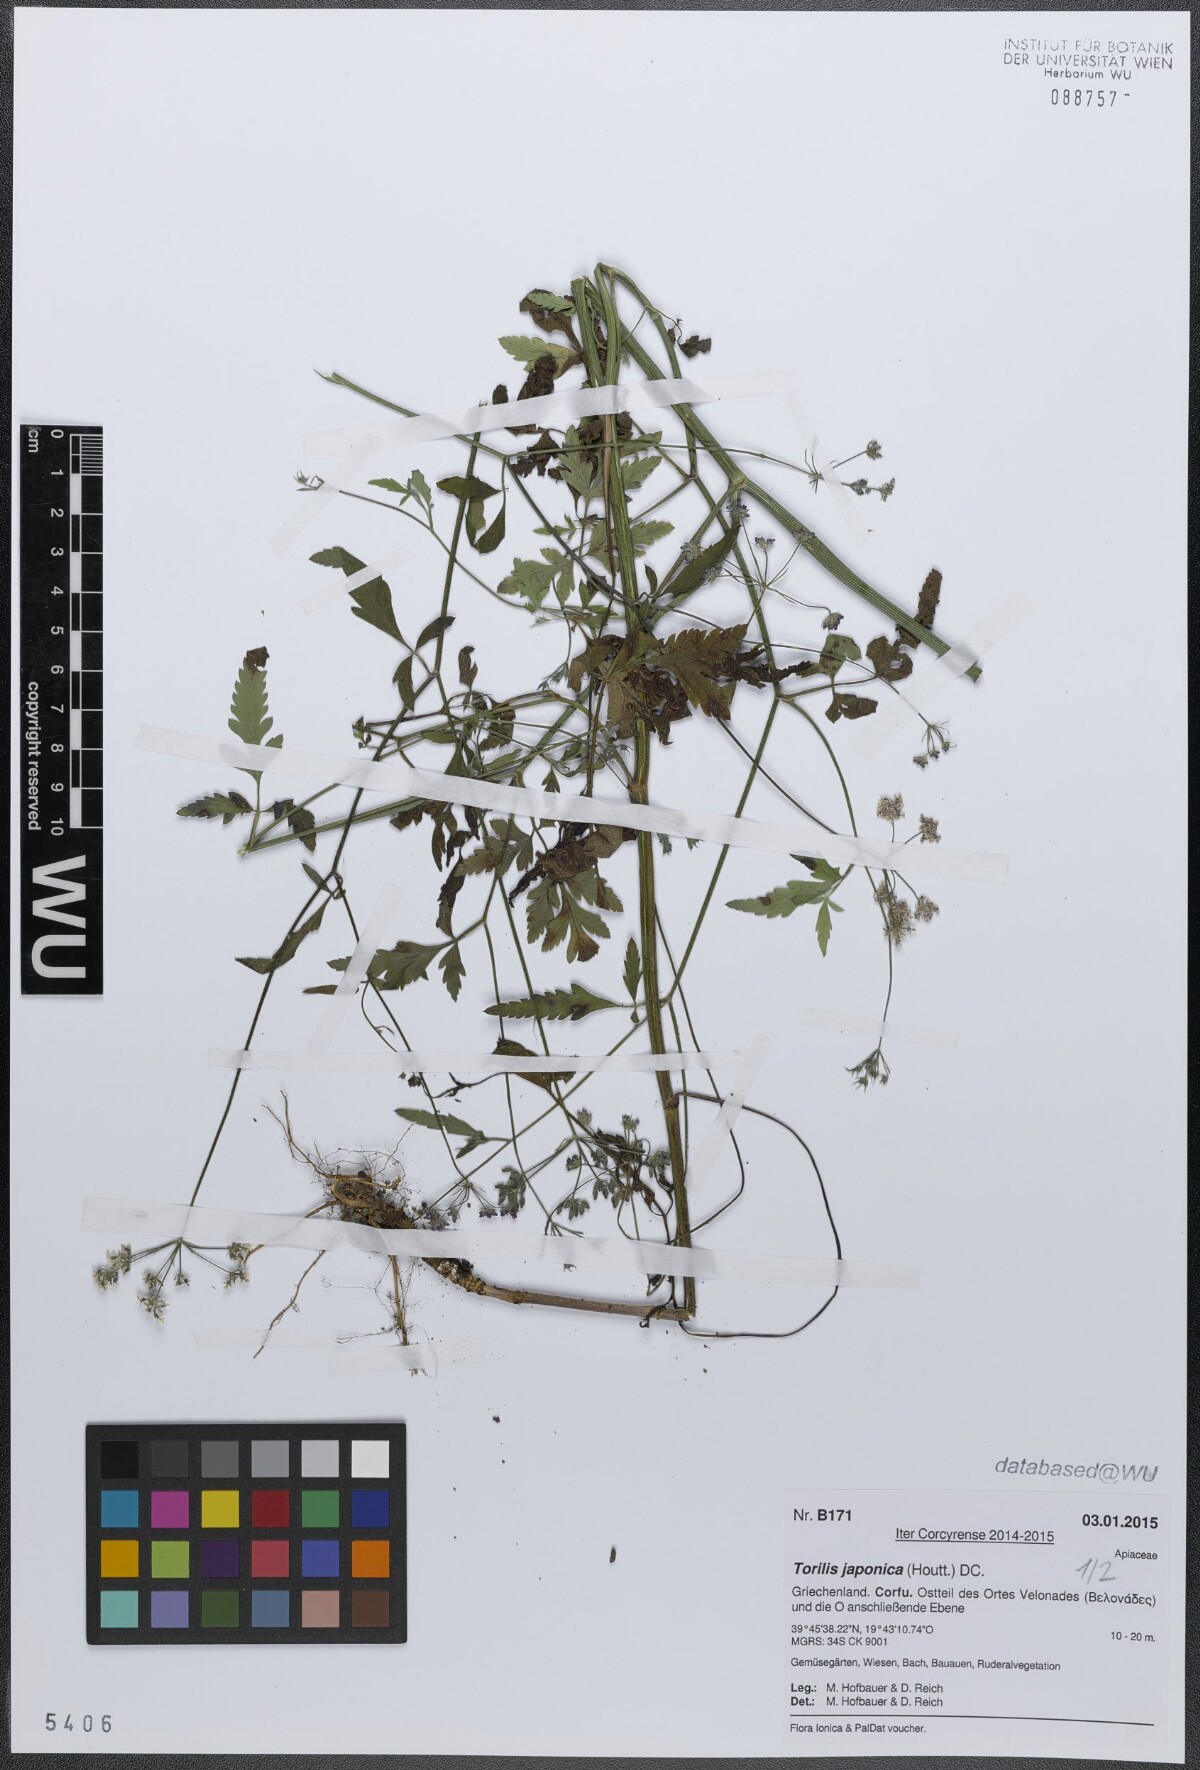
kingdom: Plantae
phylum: Tracheophyta
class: Magnoliopsida
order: Apiales
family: Apiaceae
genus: Torilis
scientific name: Torilis japonica
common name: Upright hedge-parsley
